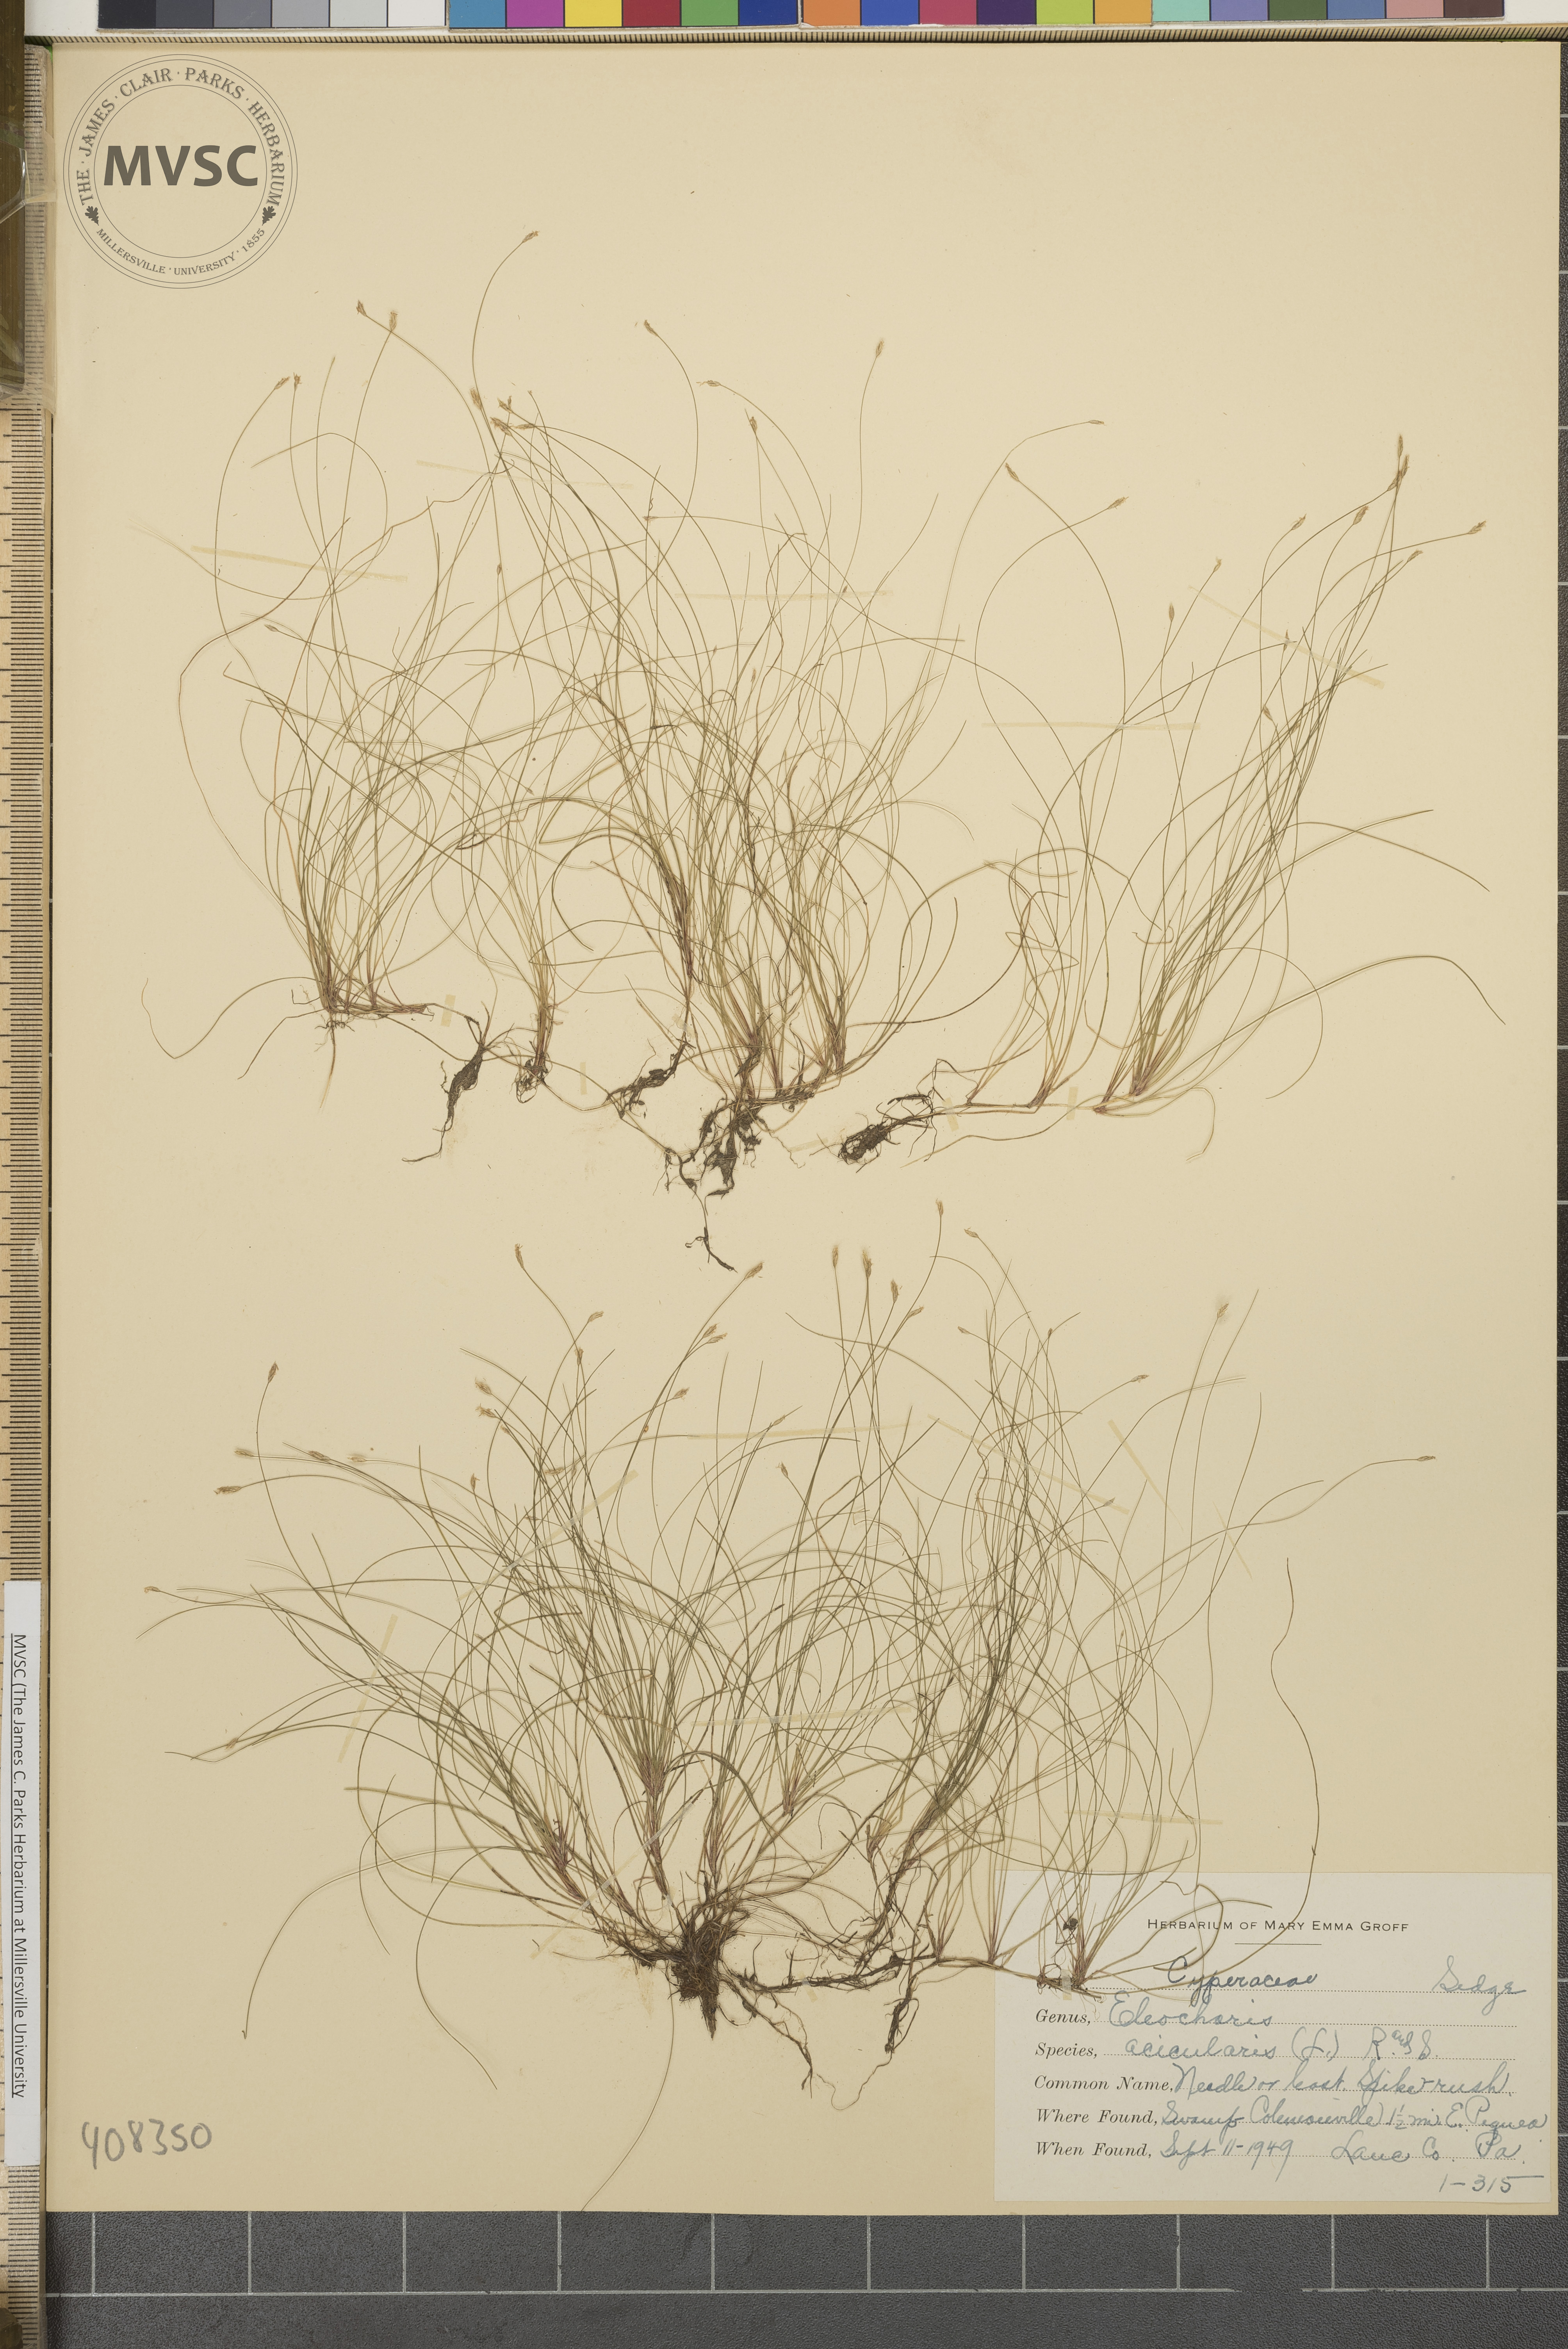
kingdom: Plantae
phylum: Tracheophyta
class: Liliopsida
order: Poales
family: Cyperaceae
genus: Eleocharis
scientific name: Eleocharis acicularis
